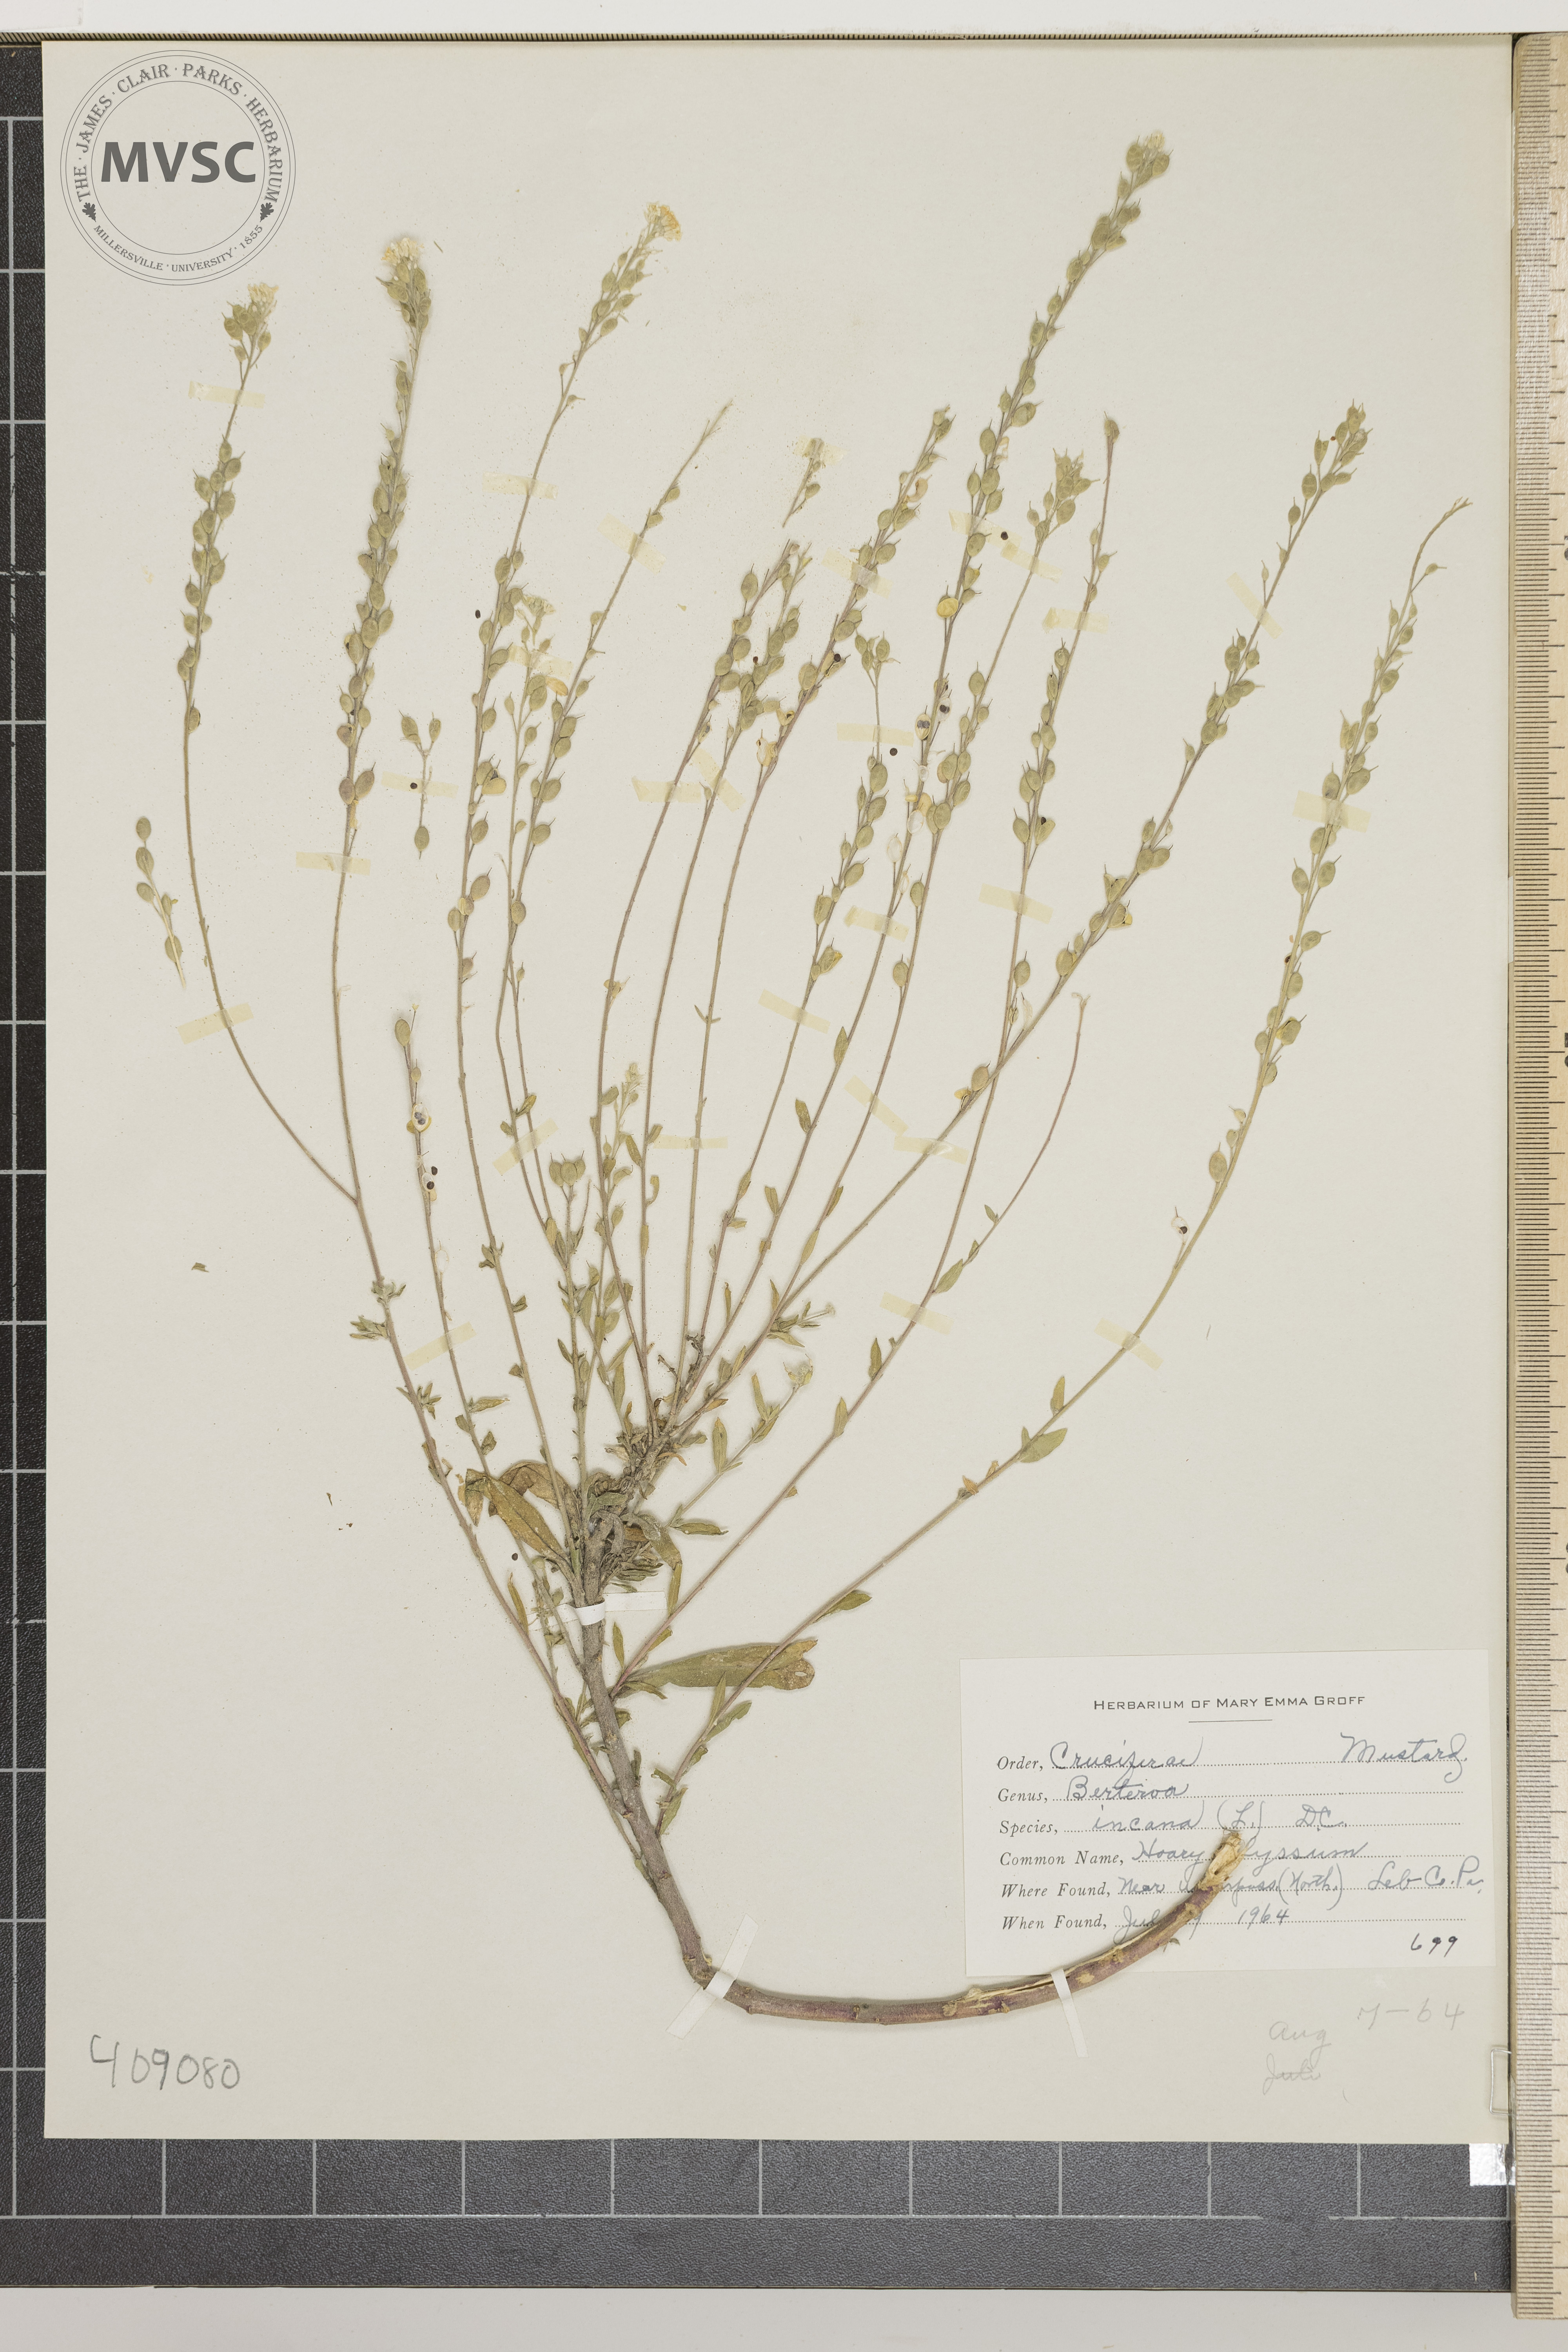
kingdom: Plantae
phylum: Tracheophyta
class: Magnoliopsida
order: Brassicales
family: Brassicaceae
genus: Berteroa
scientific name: Berteroa incana
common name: Hoary alyssum
